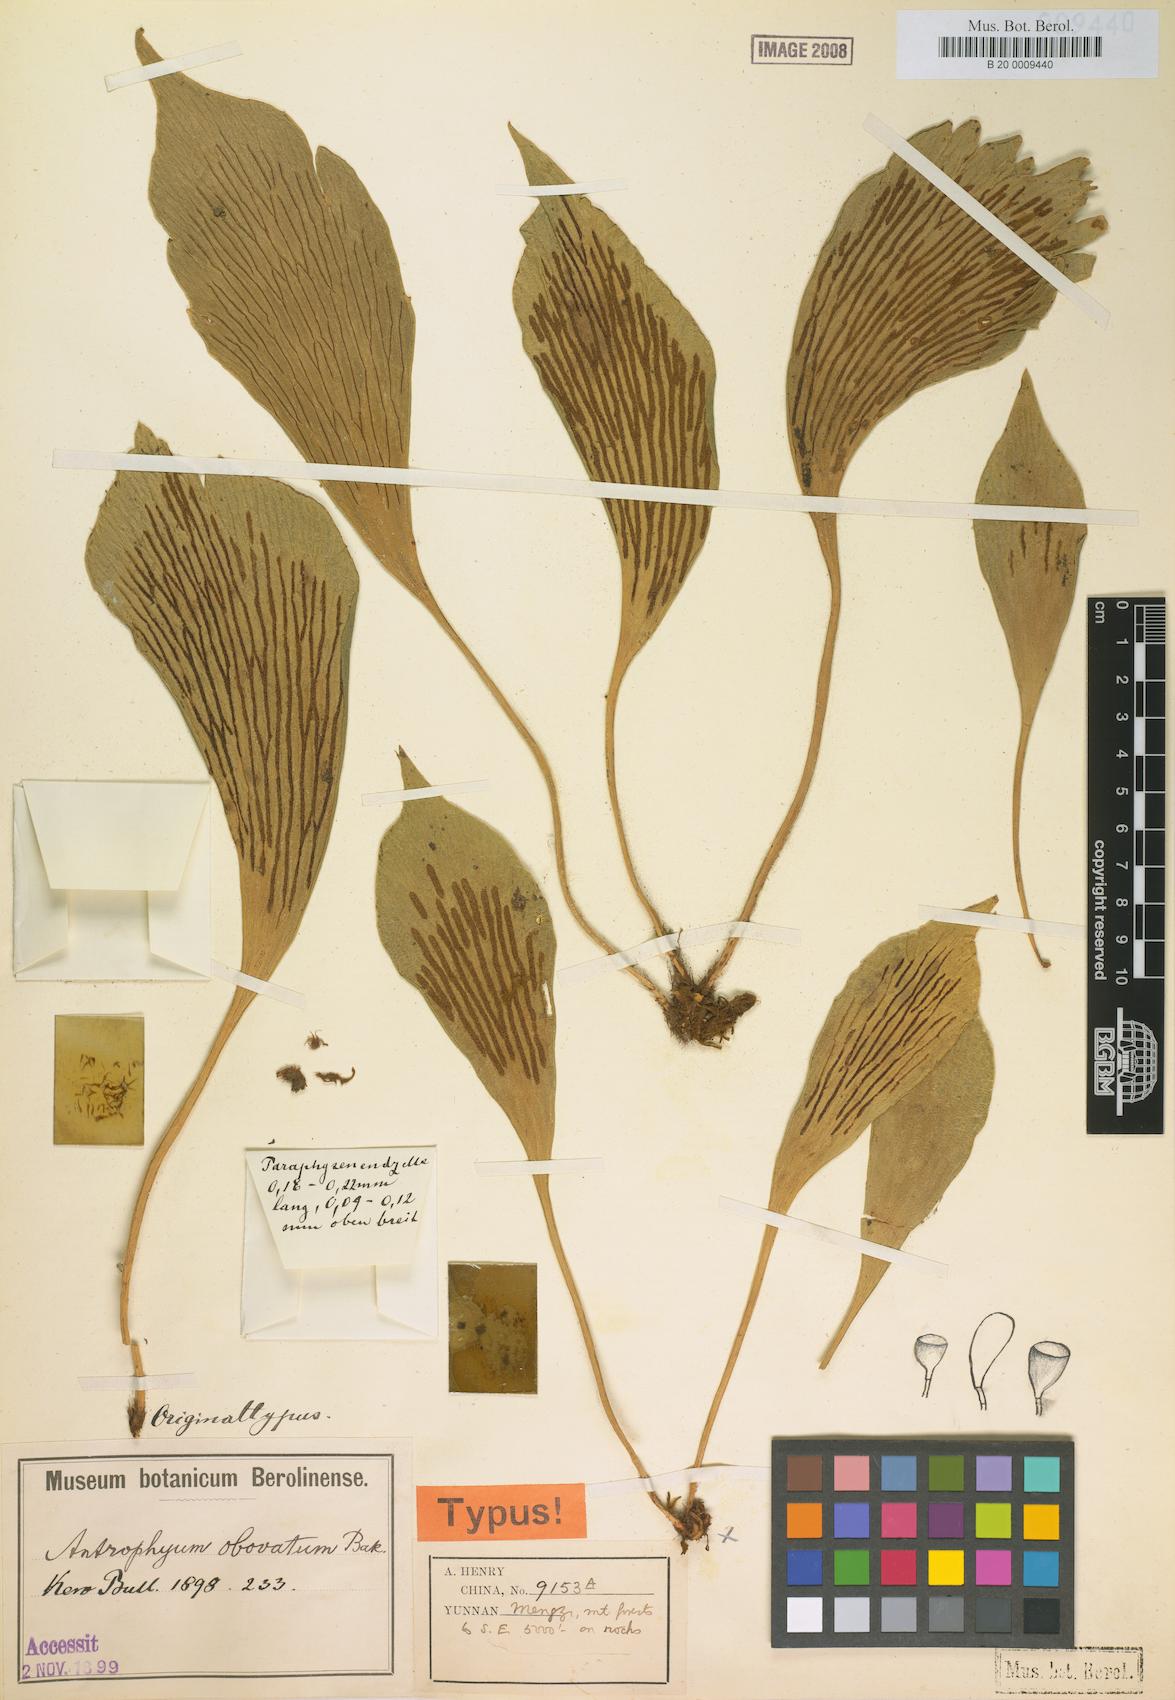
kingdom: Plantae
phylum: Tracheophyta
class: Polypodiopsida
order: Polypodiales
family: Pteridaceae
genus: Antrophyum
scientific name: Antrophyum obovatum
